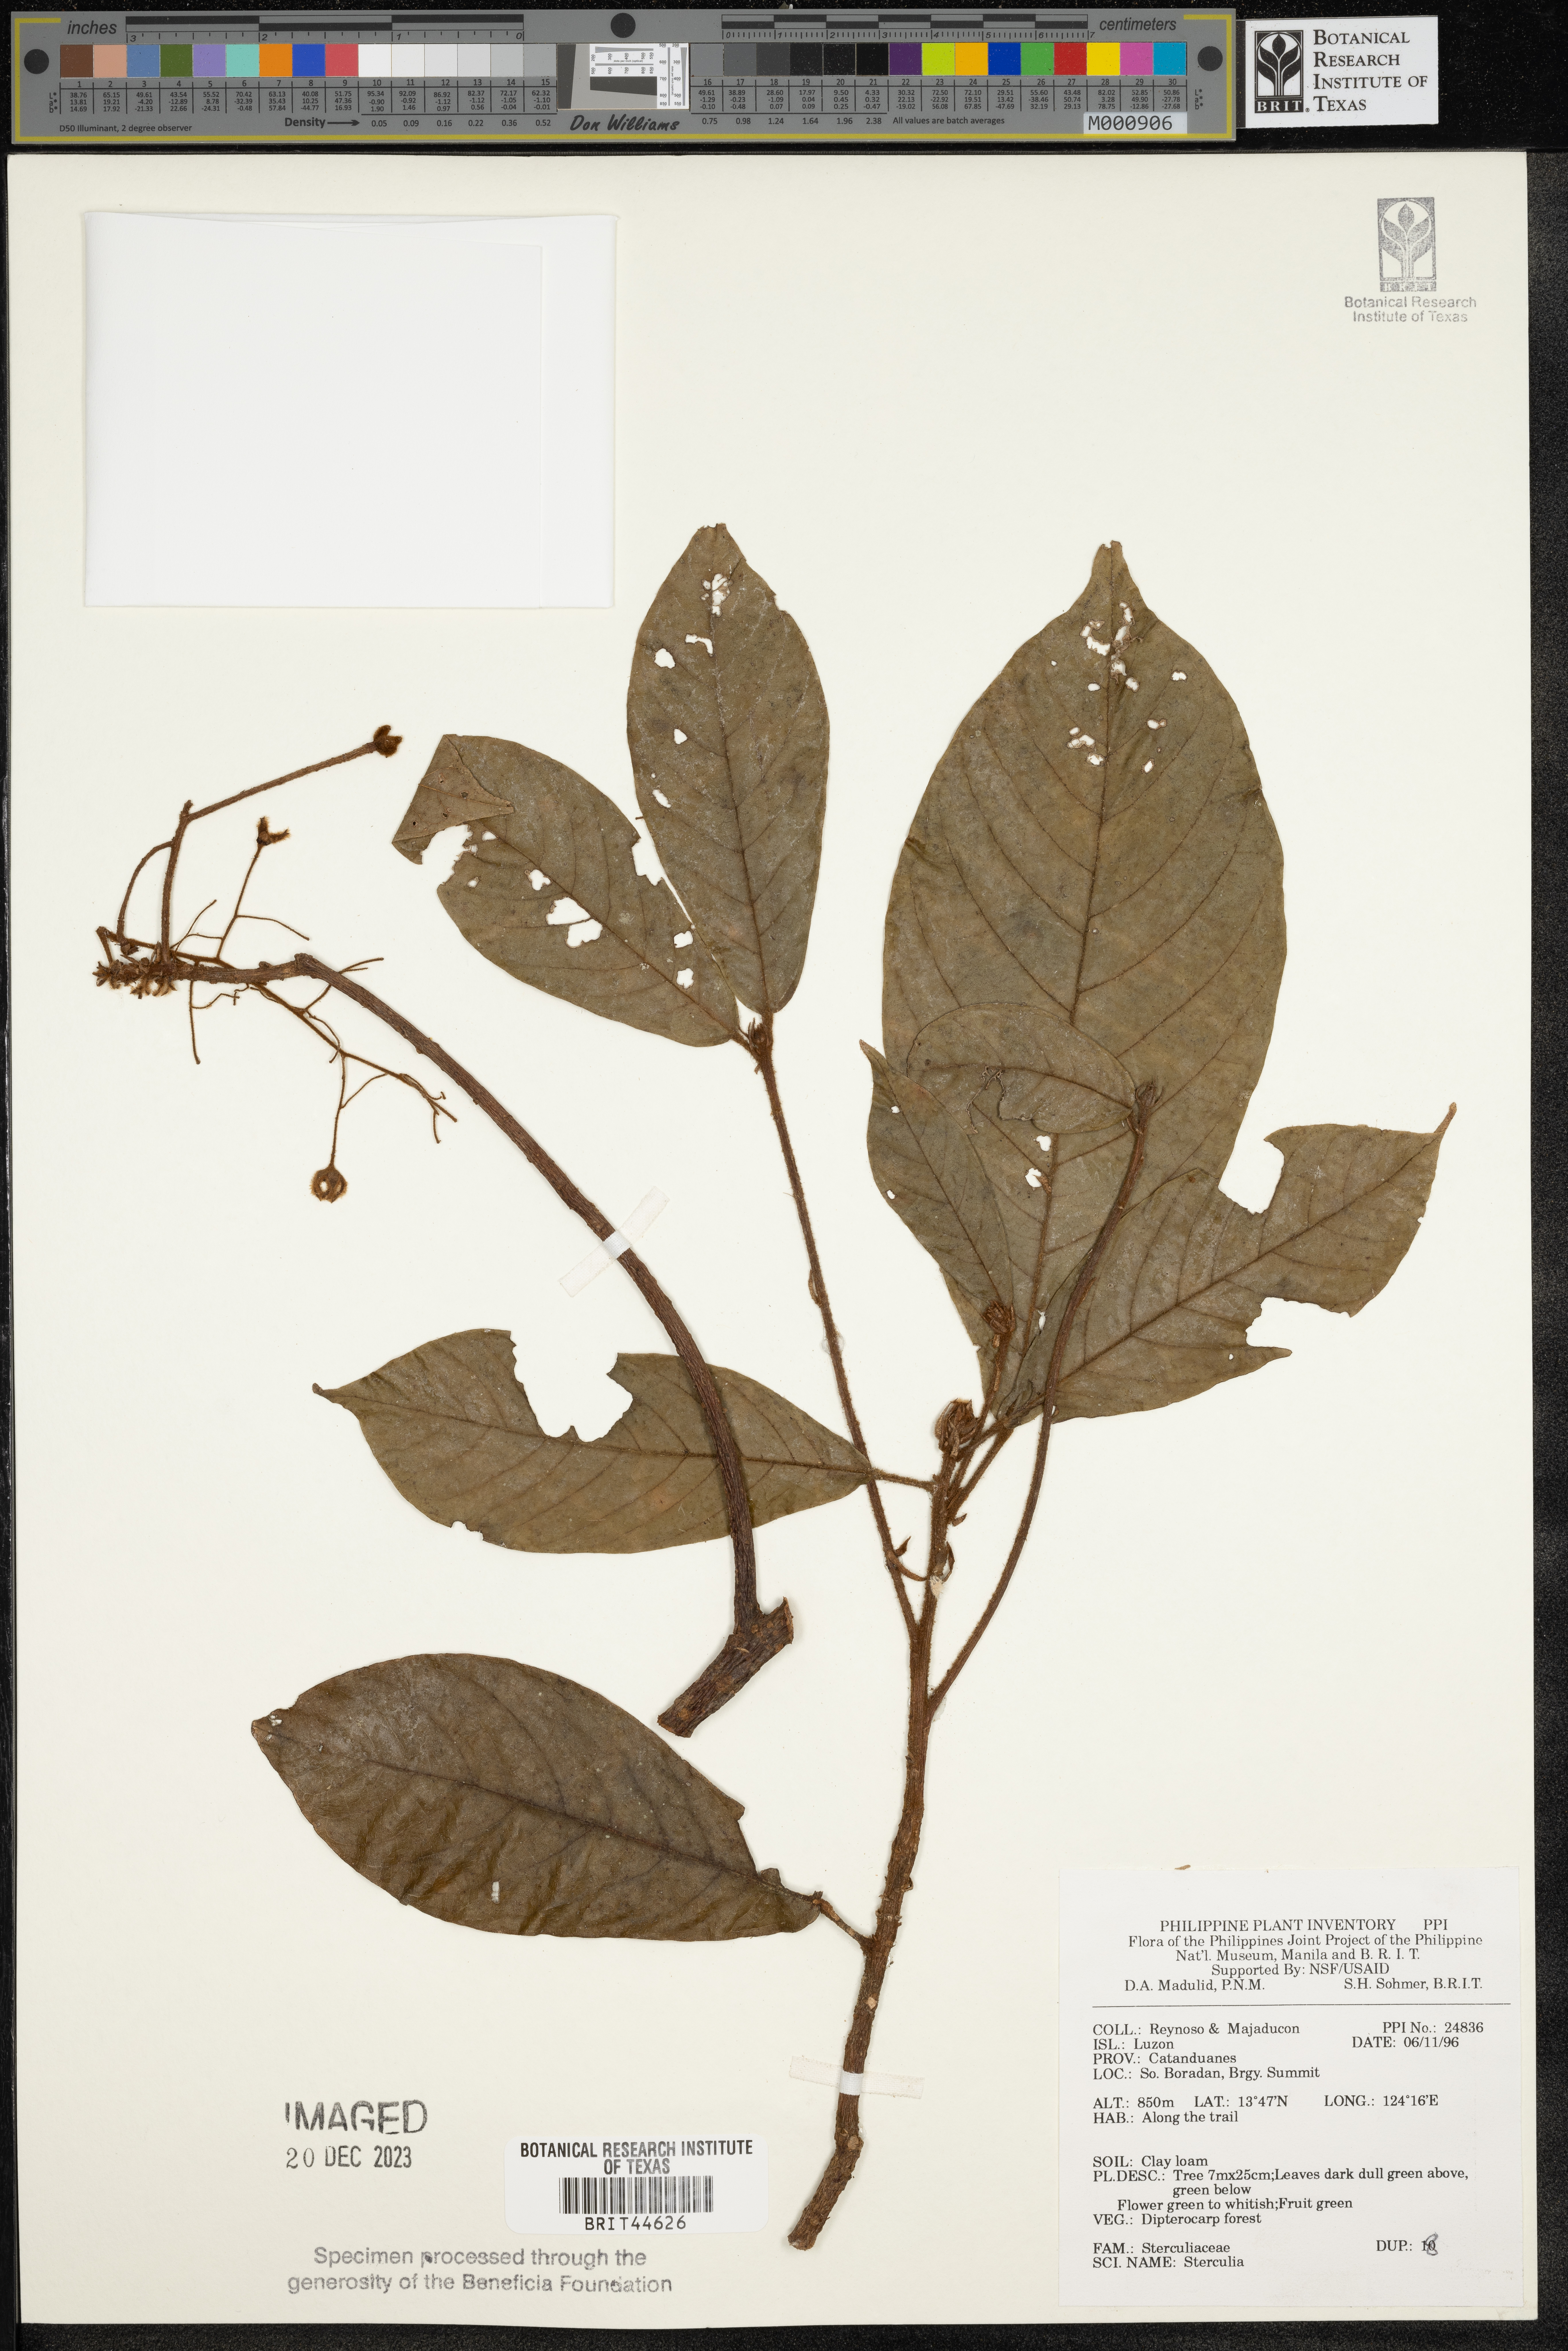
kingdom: Plantae
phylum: Tracheophyta
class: Magnoliopsida
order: Malvales
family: Malvaceae
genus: Sterculia
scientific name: Sterculia
